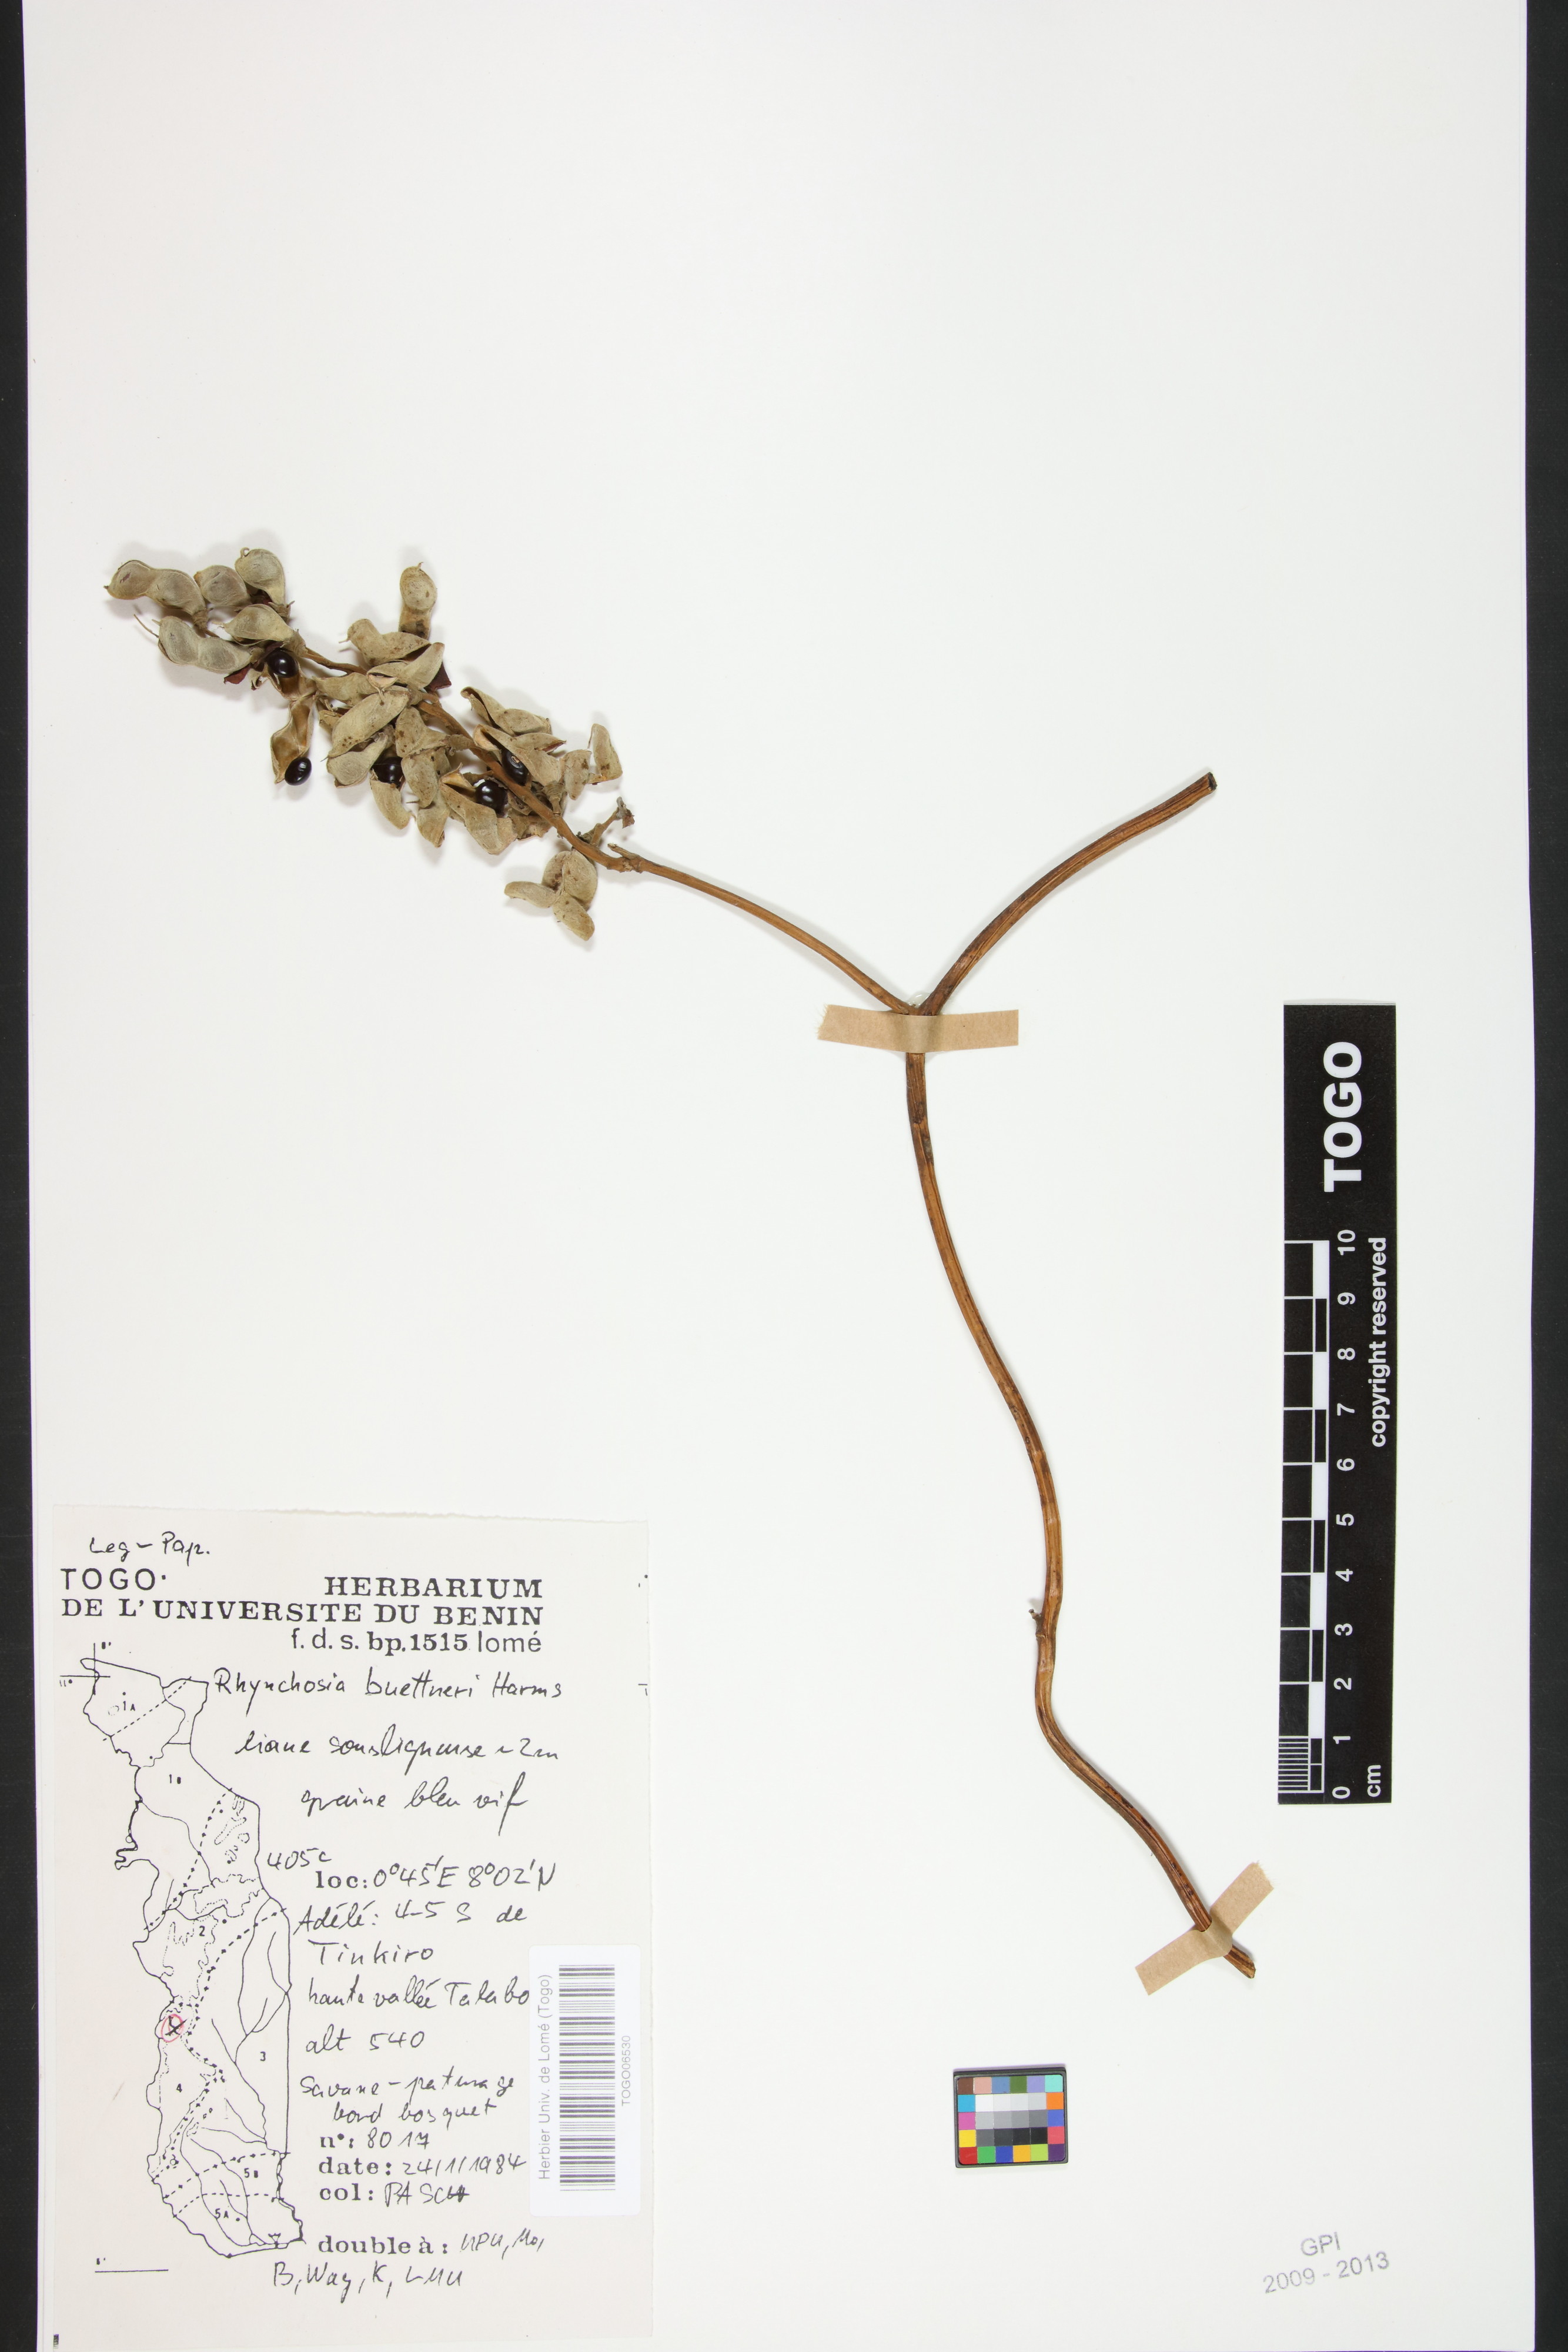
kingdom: Plantae
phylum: Tracheophyta
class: Magnoliopsida
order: Fabales
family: Fabaceae
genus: Rhynchosia
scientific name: Rhynchosia buettneri
